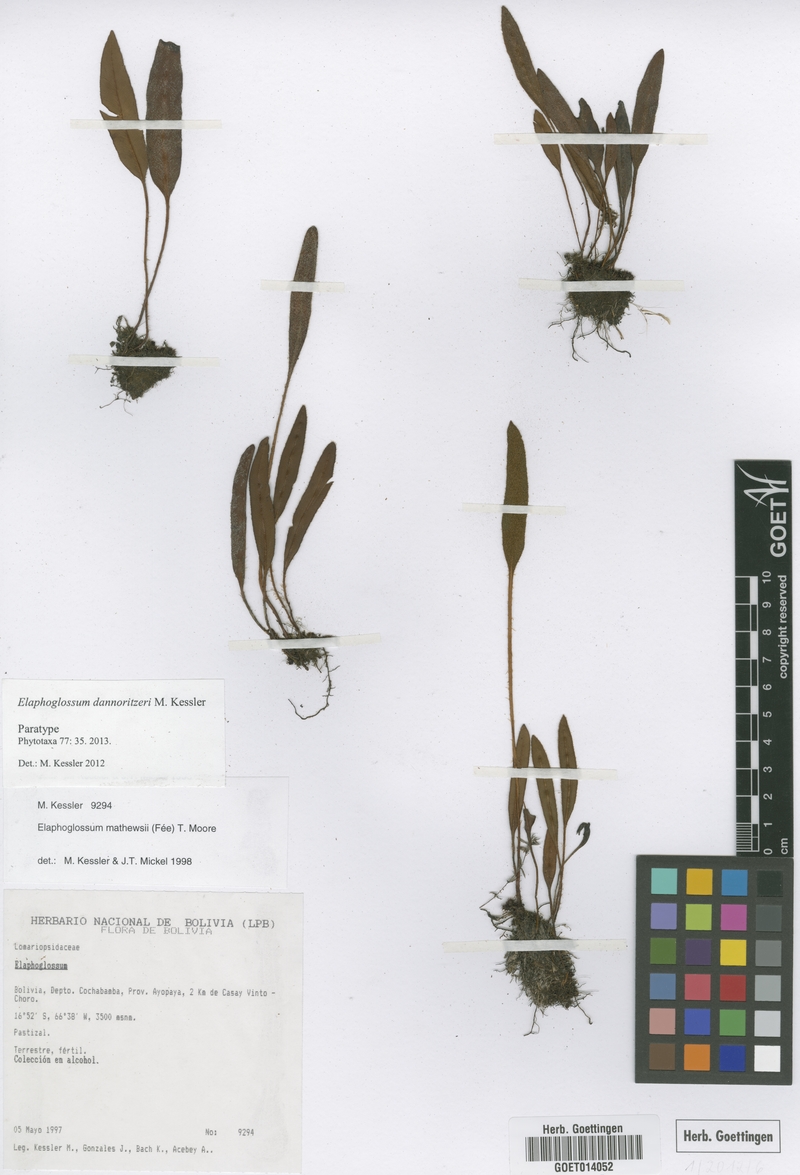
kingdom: Plantae
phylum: Tracheophyta
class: Polypodiopsida
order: Polypodiales
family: Dryopteridaceae
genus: Elaphoglossum
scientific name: Elaphoglossum dannoritzeri
